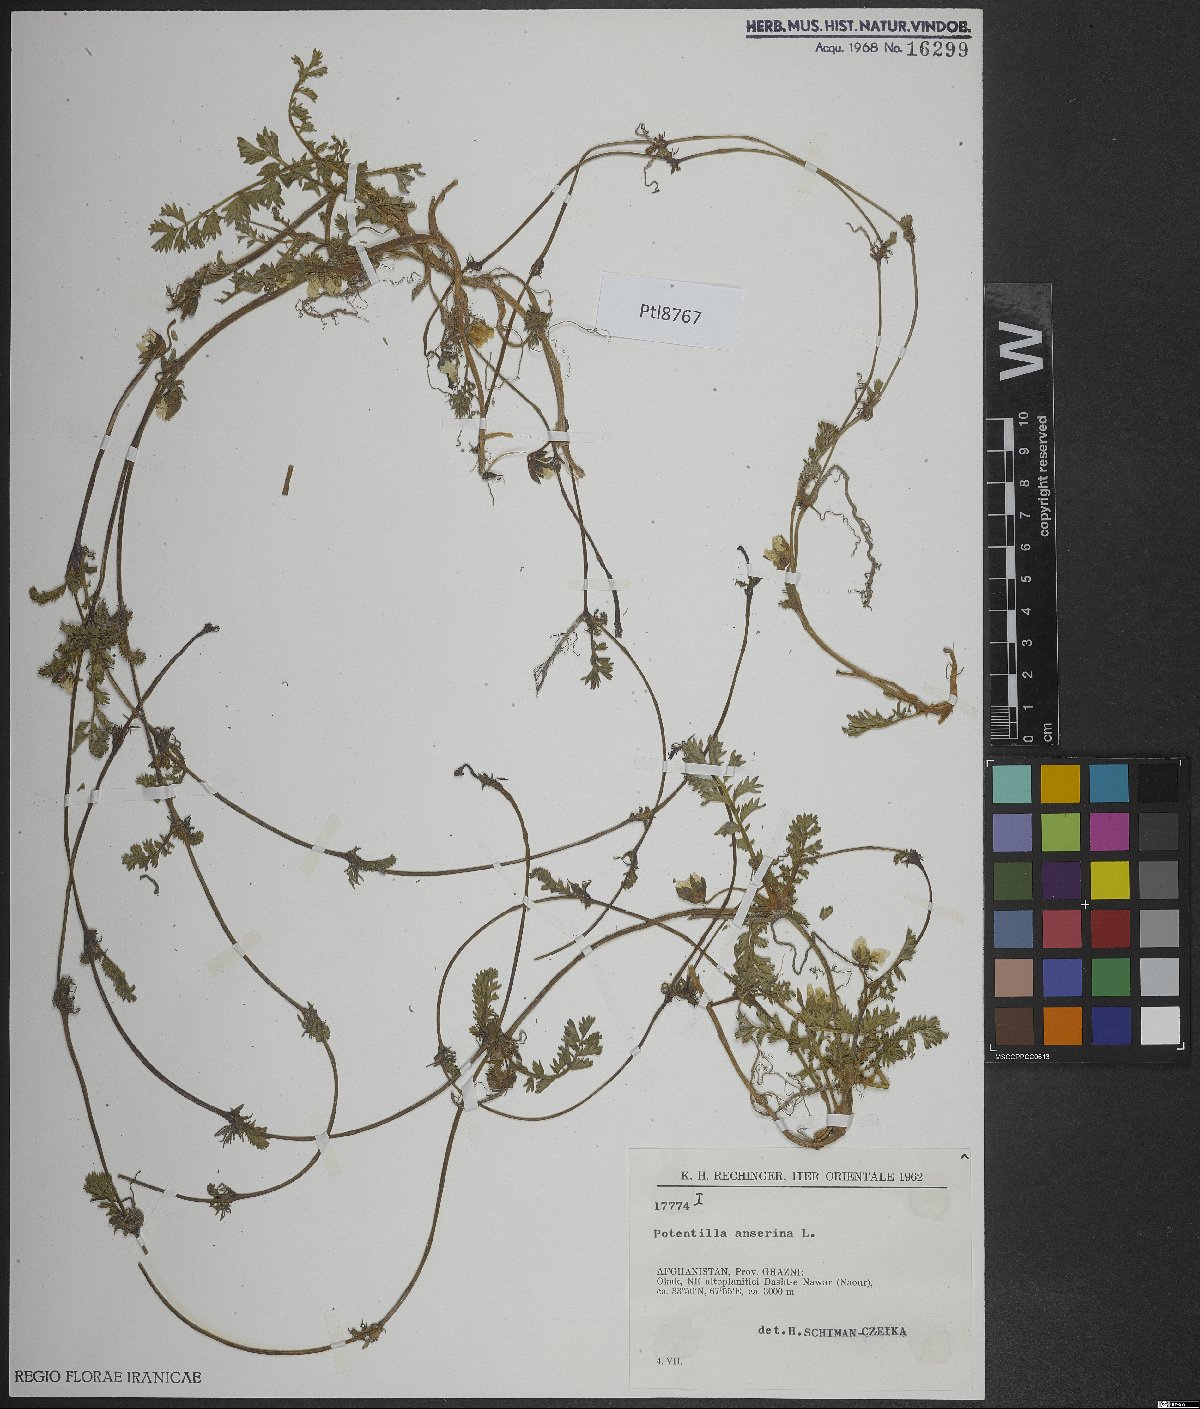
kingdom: Plantae
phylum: Tracheophyta
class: Magnoliopsida
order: Rosales
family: Rosaceae
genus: Argentina
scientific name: Argentina anserina
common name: Common silverweed
